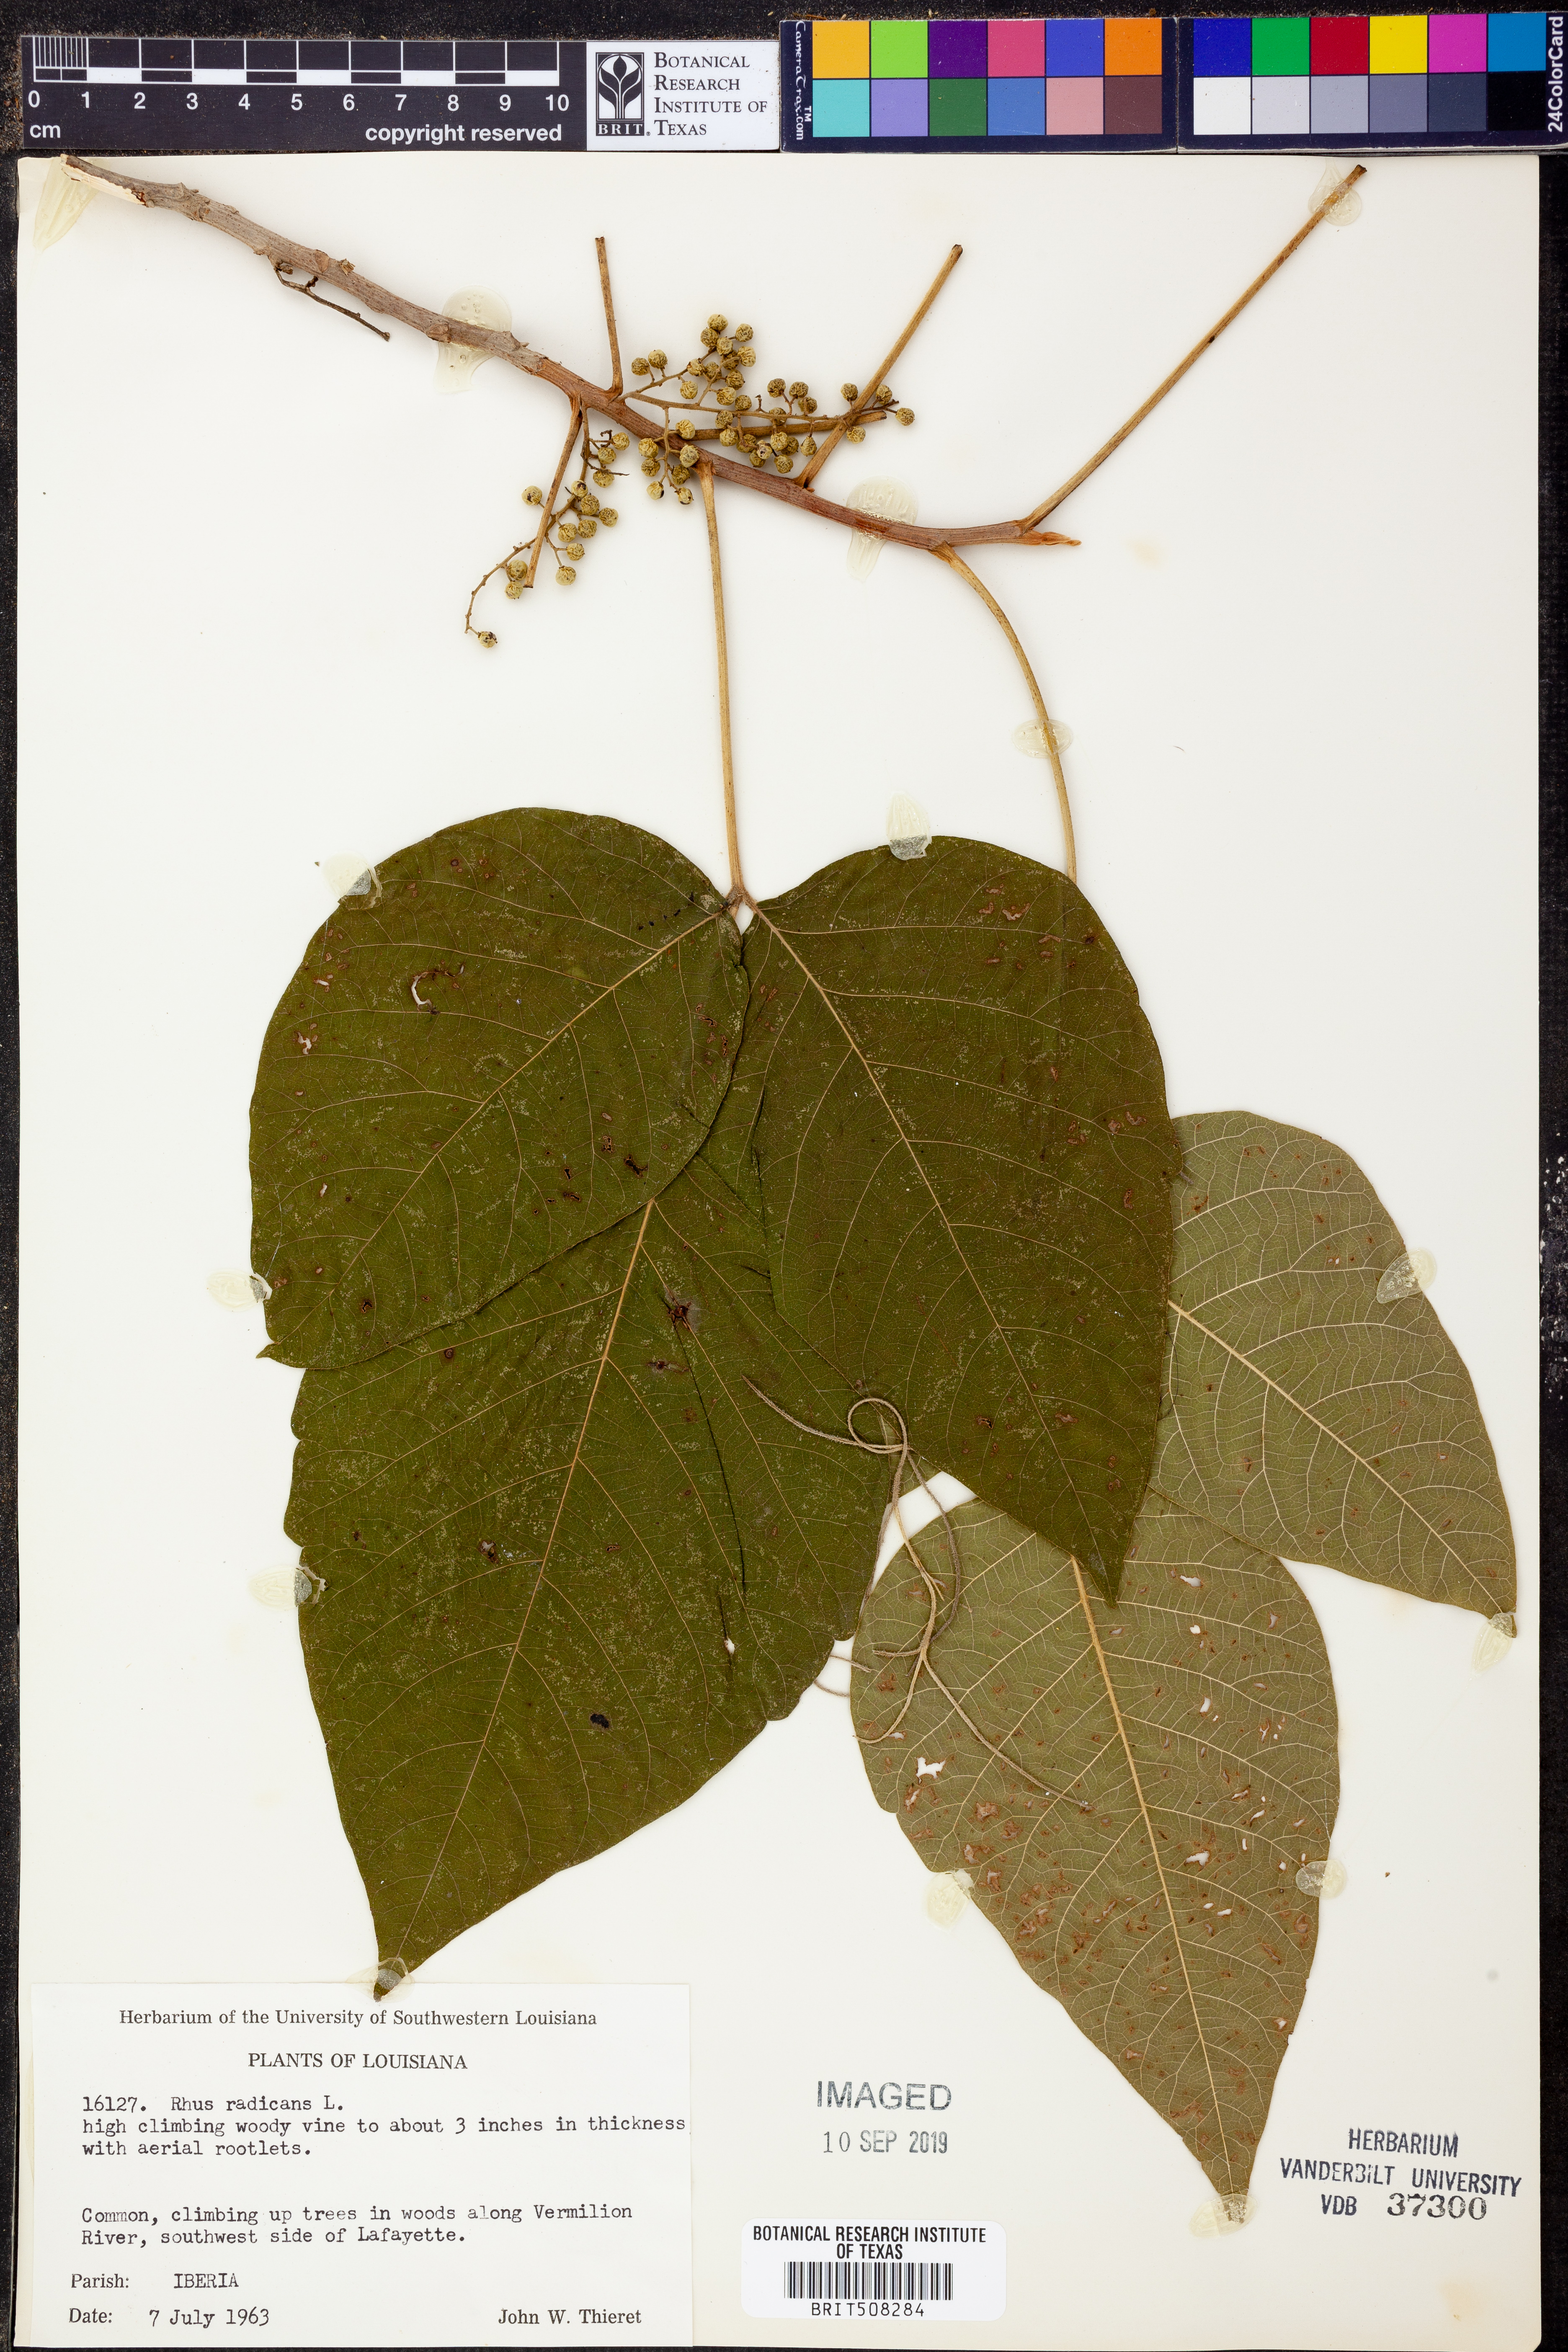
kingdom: Plantae
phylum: Tracheophyta
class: Magnoliopsida
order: Sapindales
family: Anacardiaceae
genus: Toxicodendron
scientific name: Toxicodendron radicans
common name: Poison ivy
